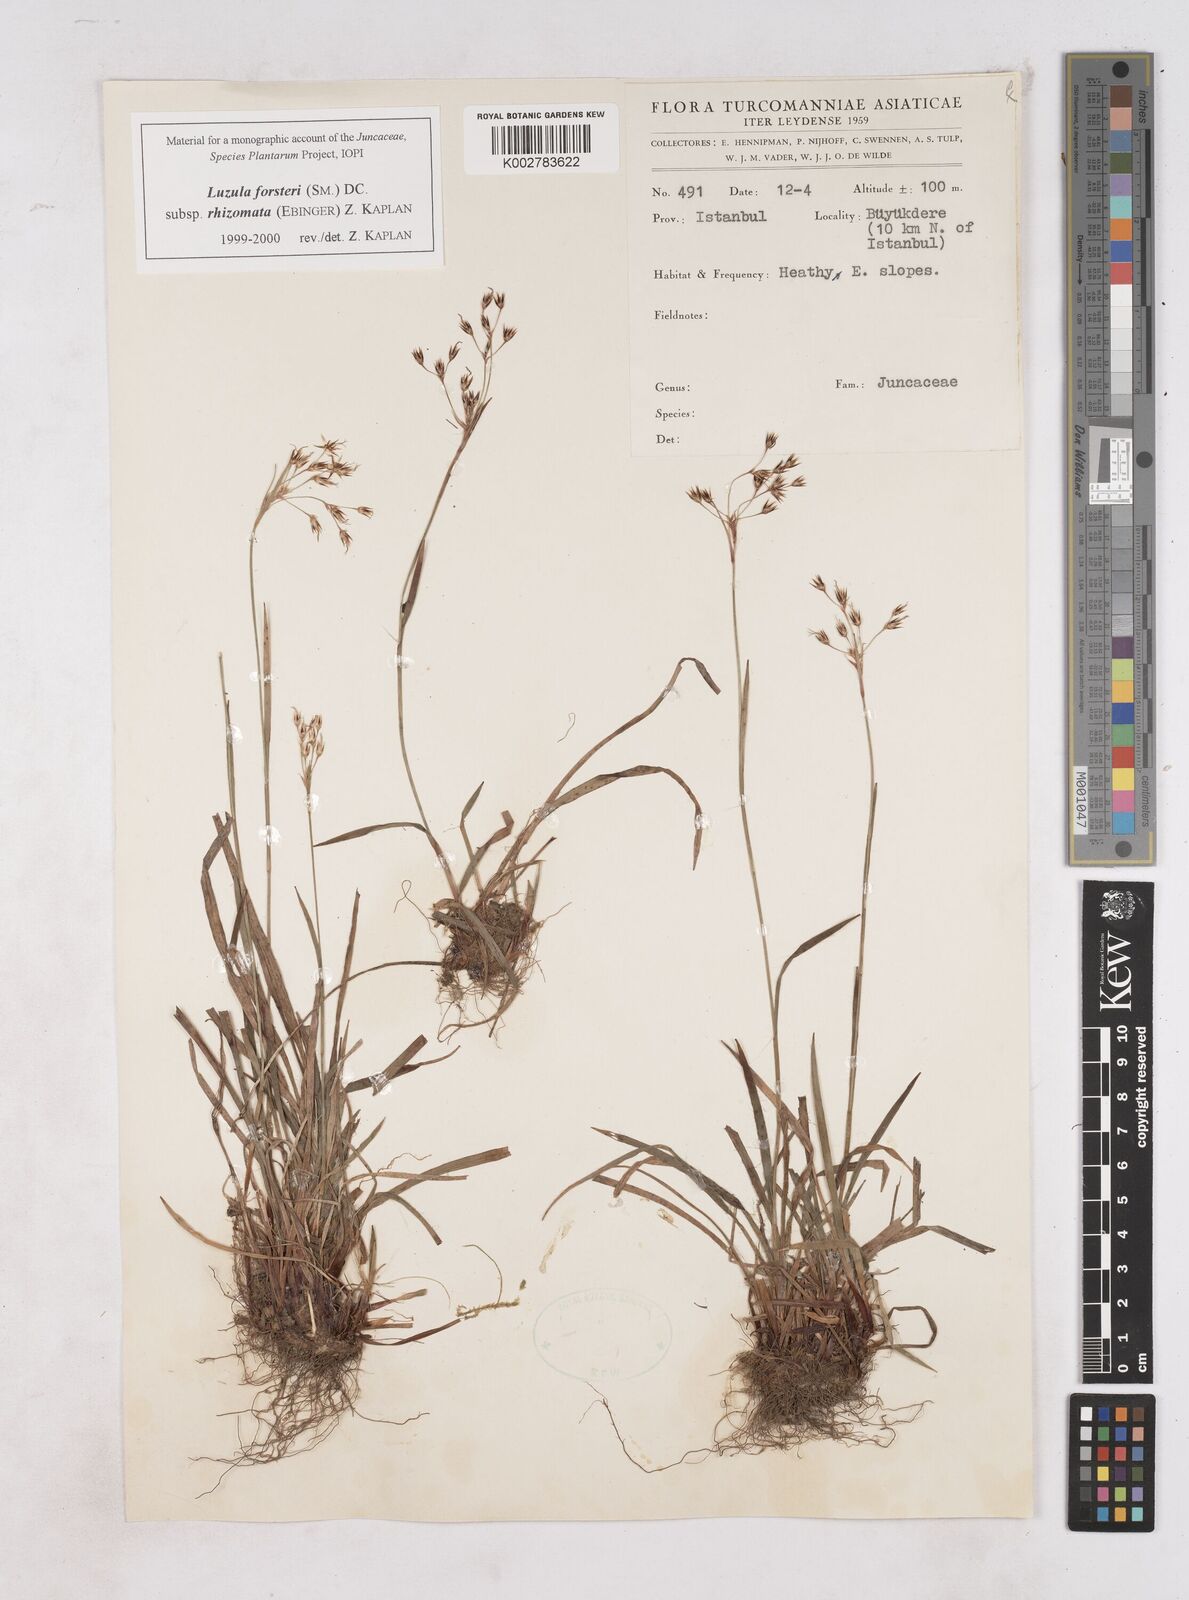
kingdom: Plantae
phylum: Tracheophyta
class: Liliopsida
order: Poales
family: Juncaceae
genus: Luzula
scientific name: Luzula forsteri
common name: Southern wood-rush
